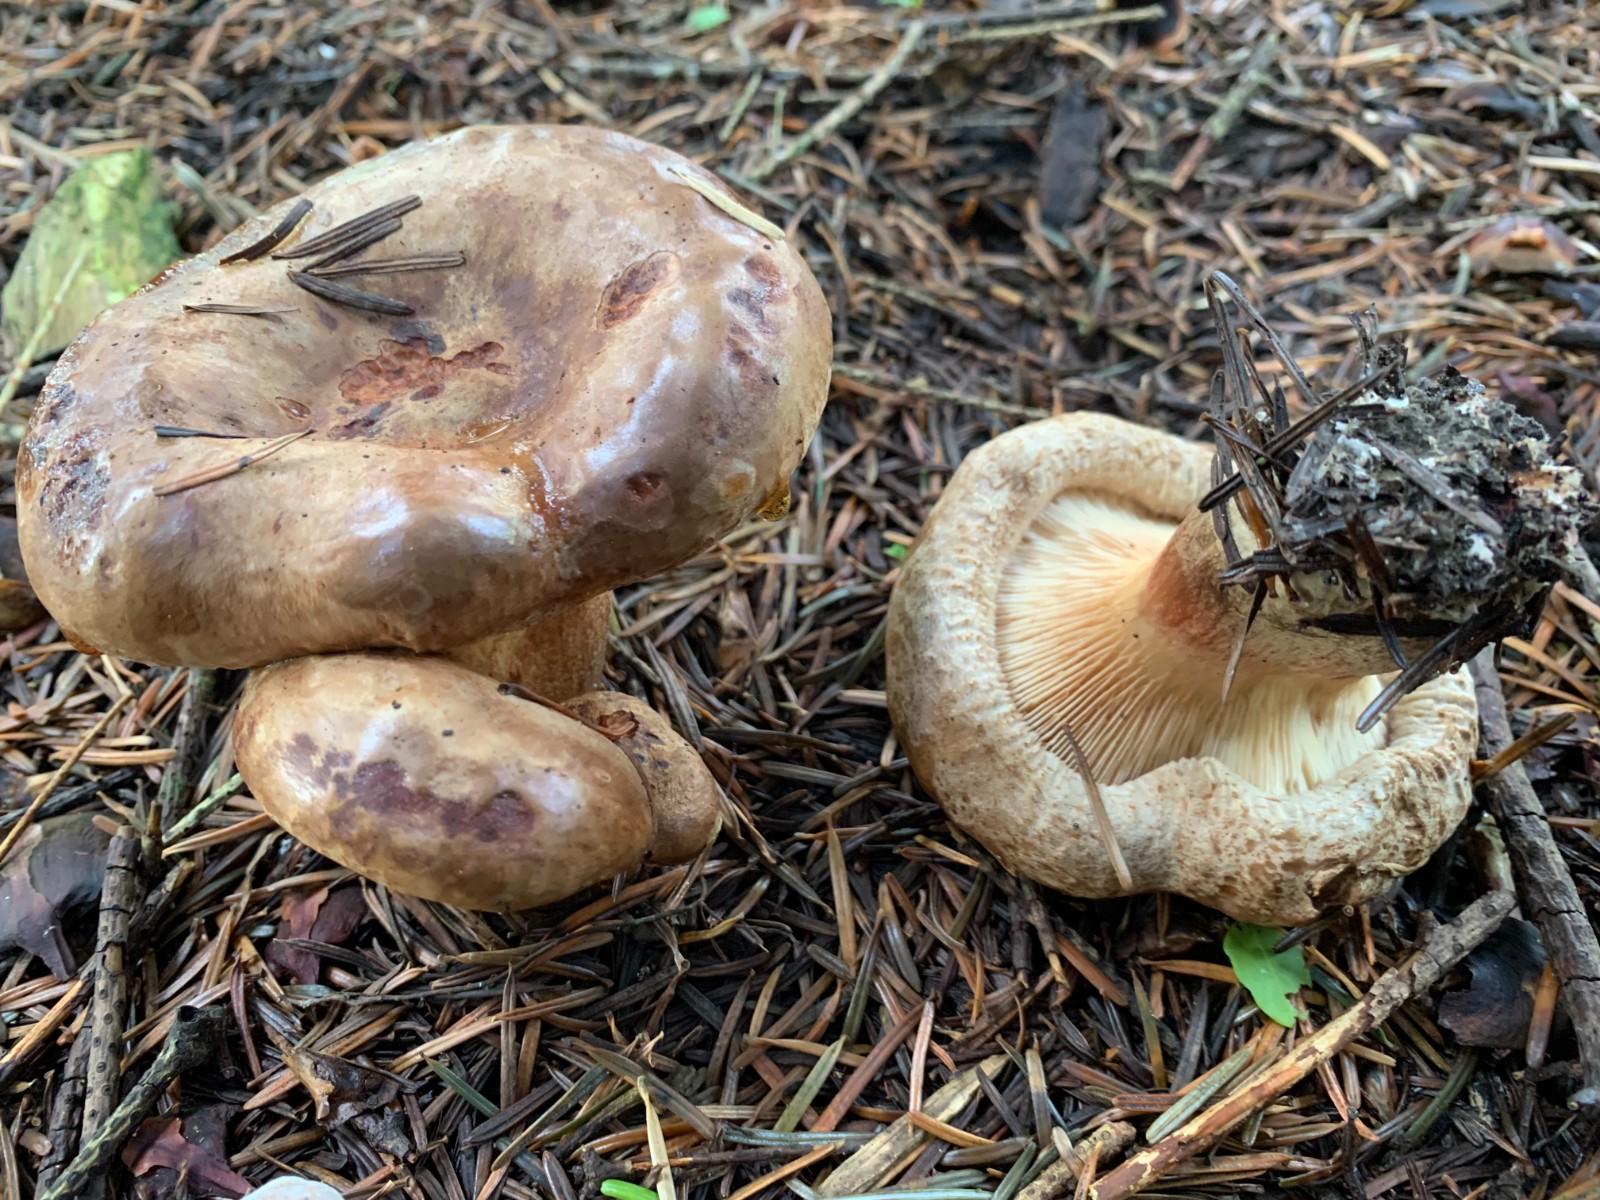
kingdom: Fungi
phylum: Basidiomycota
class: Agaricomycetes
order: Boletales
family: Paxillaceae
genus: Paxillus
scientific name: Paxillus involutus
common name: almindelig netbladhat
